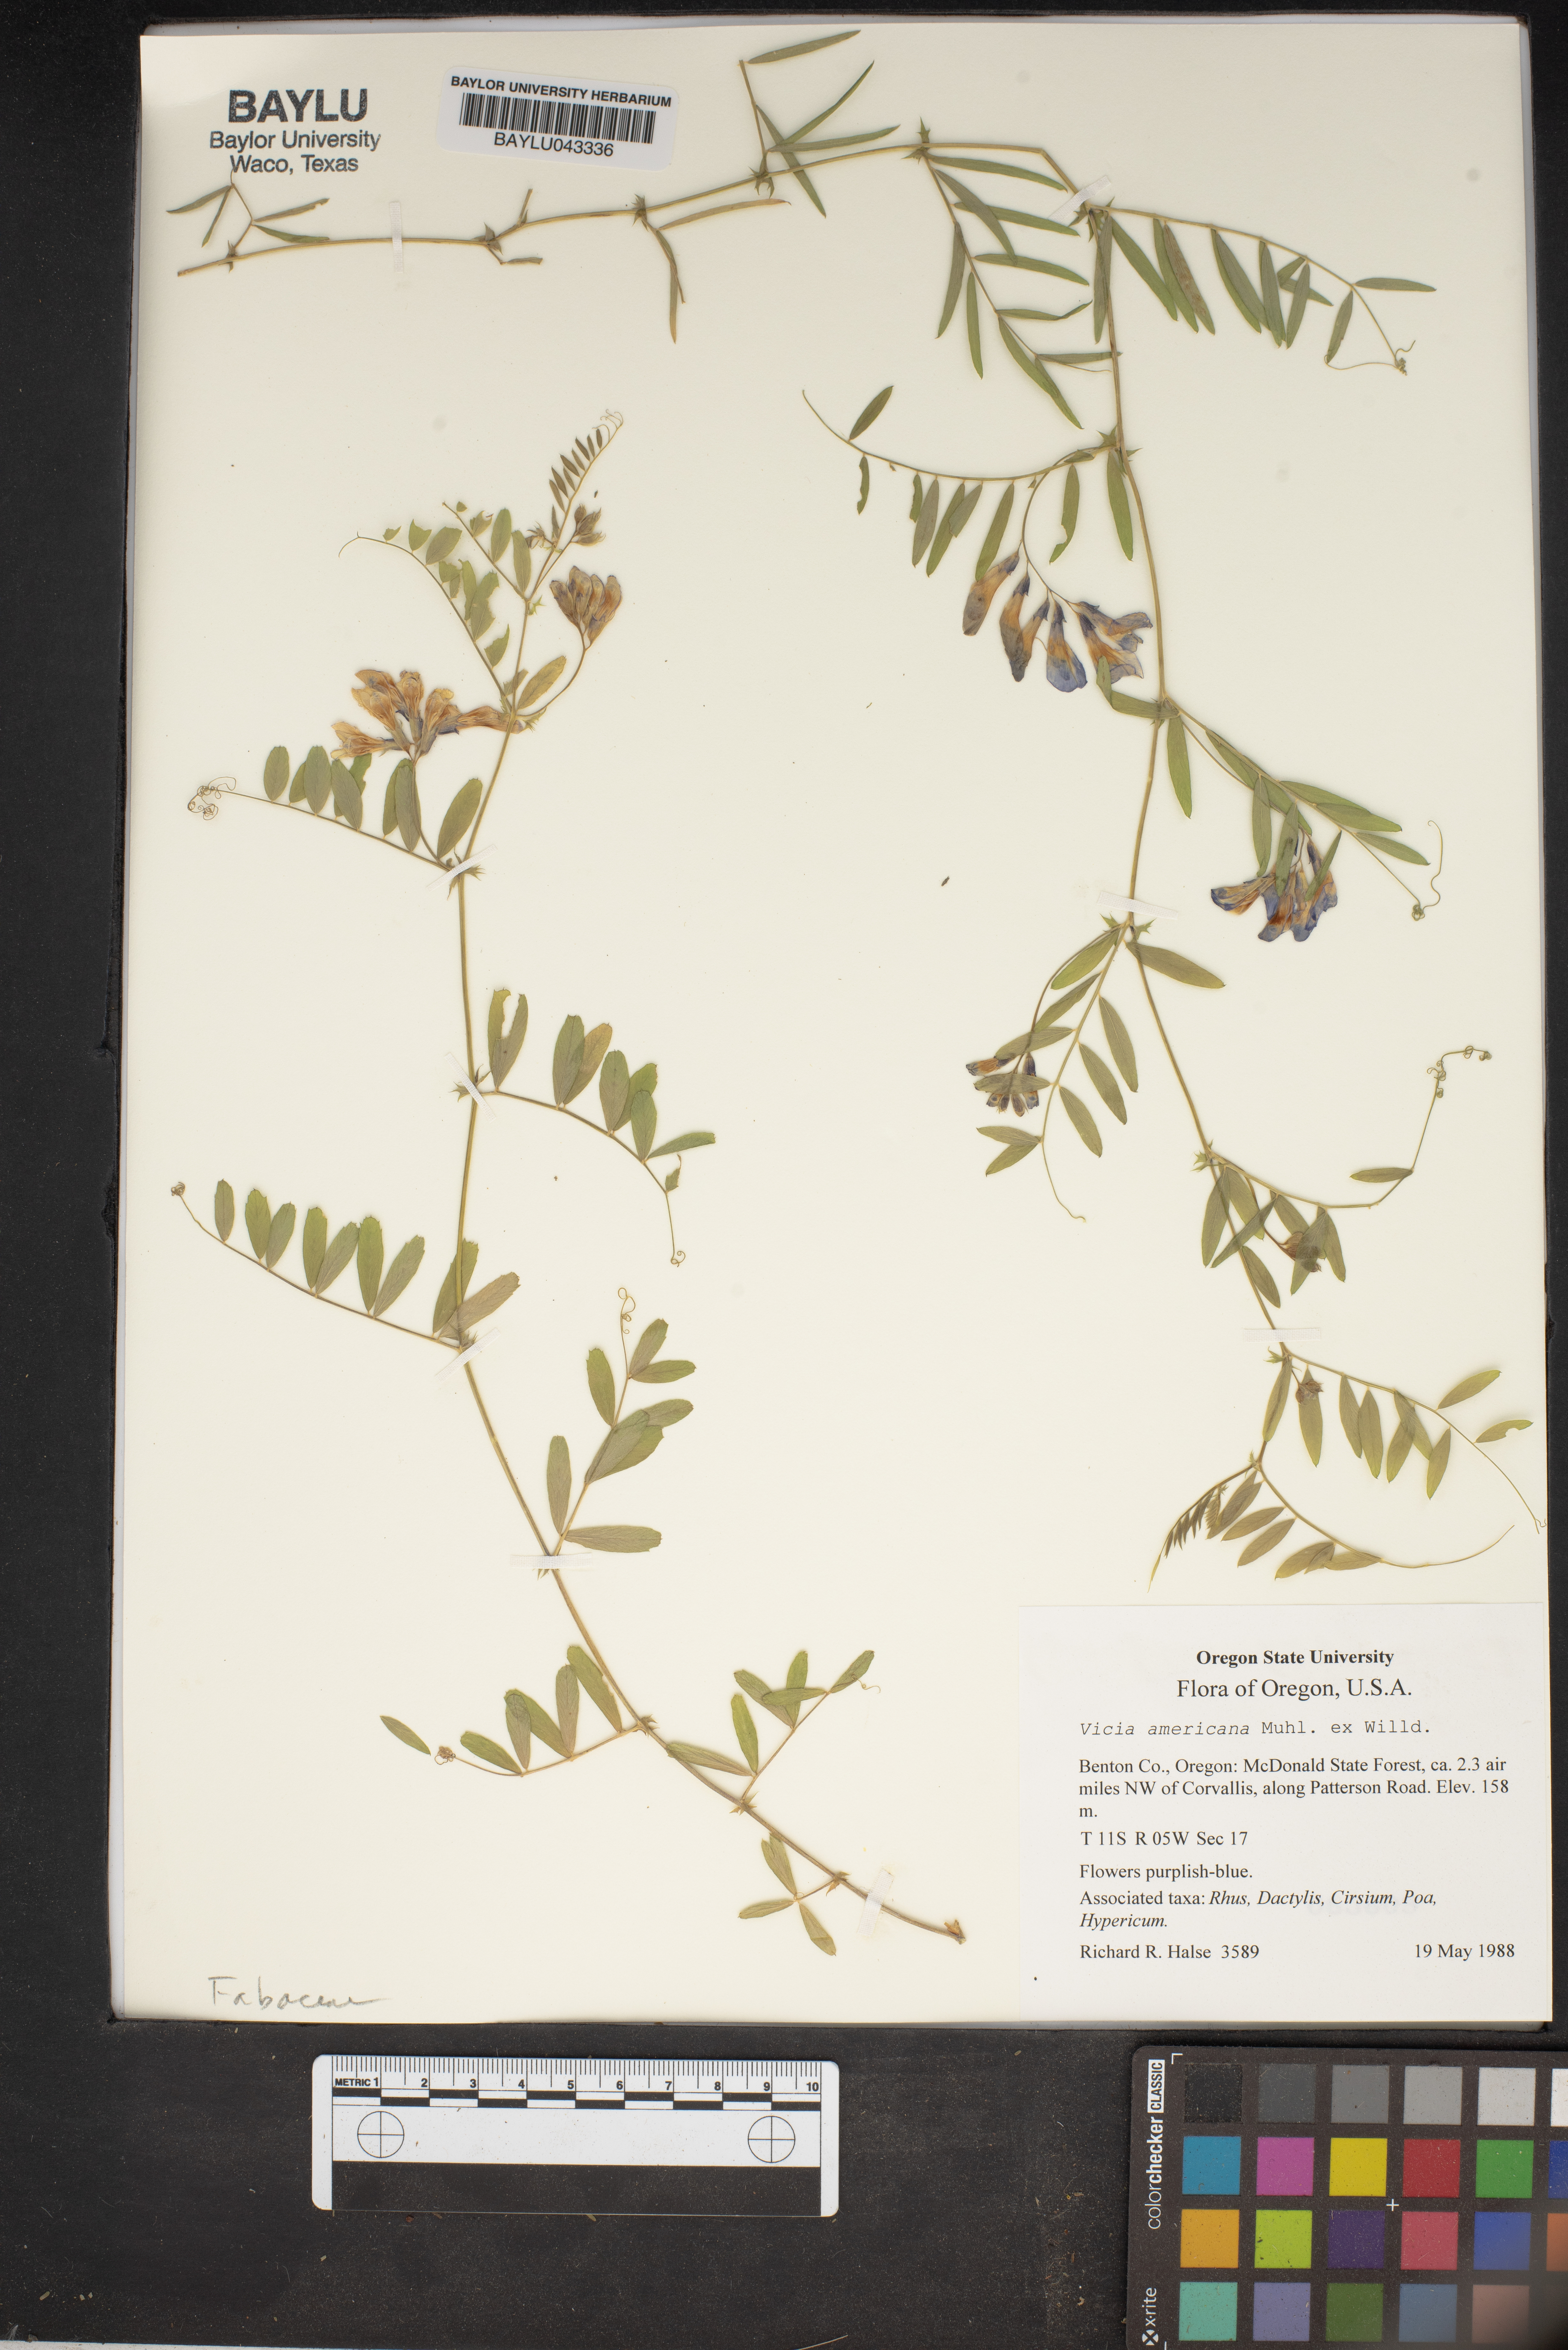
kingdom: Plantae
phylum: Tracheophyta
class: Magnoliopsida
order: Fabales
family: Fabaceae
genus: Vicia
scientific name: Vicia americana
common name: American vetch
